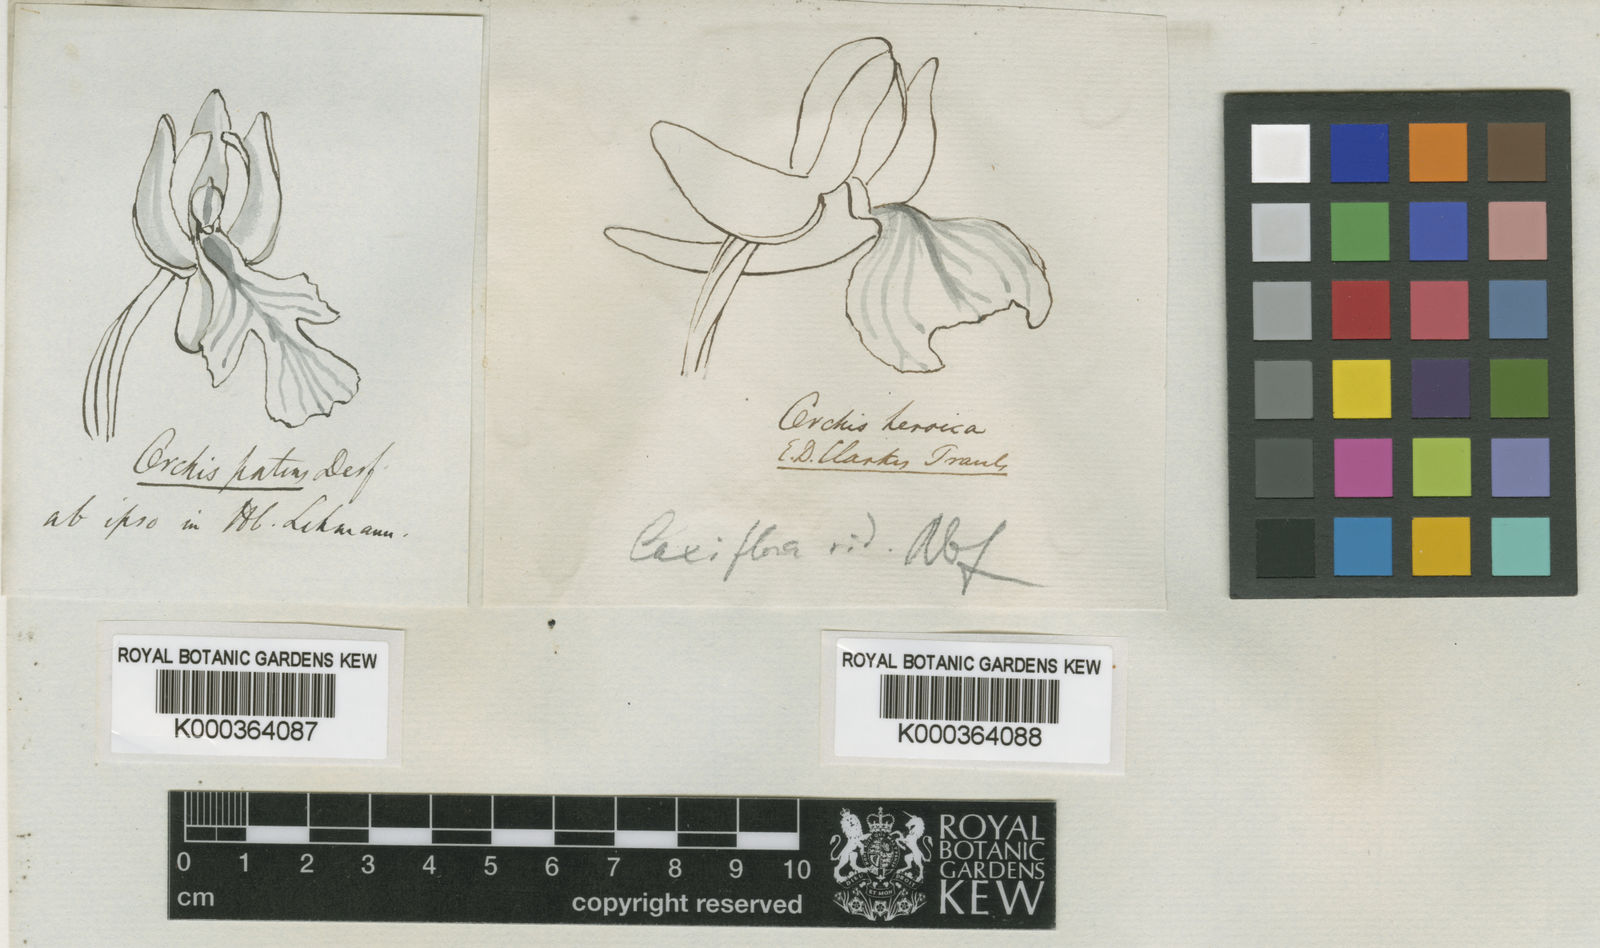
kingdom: Plantae
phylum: Tracheophyta
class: Liliopsida
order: Asparagales
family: Orchidaceae
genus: Orchis
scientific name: Orchis
